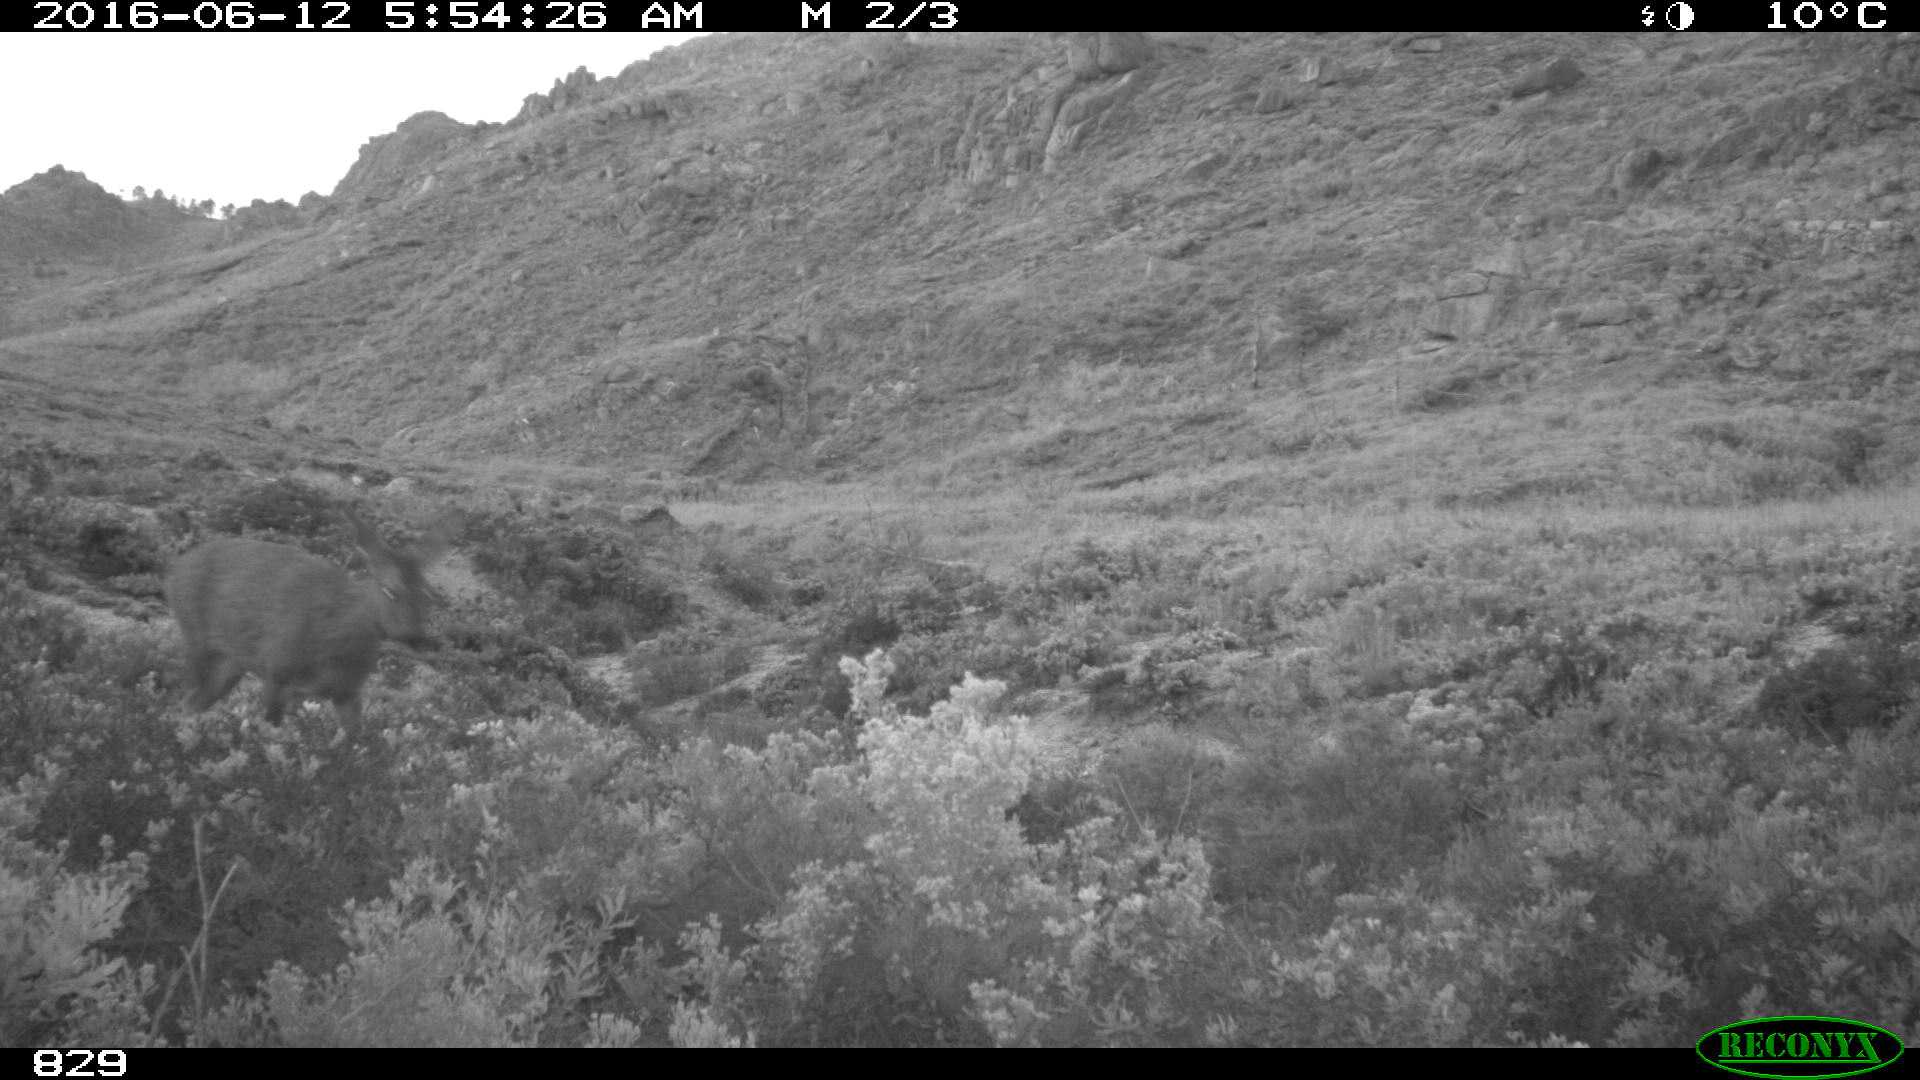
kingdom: Animalia
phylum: Chordata
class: Mammalia
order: Artiodactyla
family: Cervidae
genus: Capreolus
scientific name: Capreolus capreolus
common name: Western roe deer
